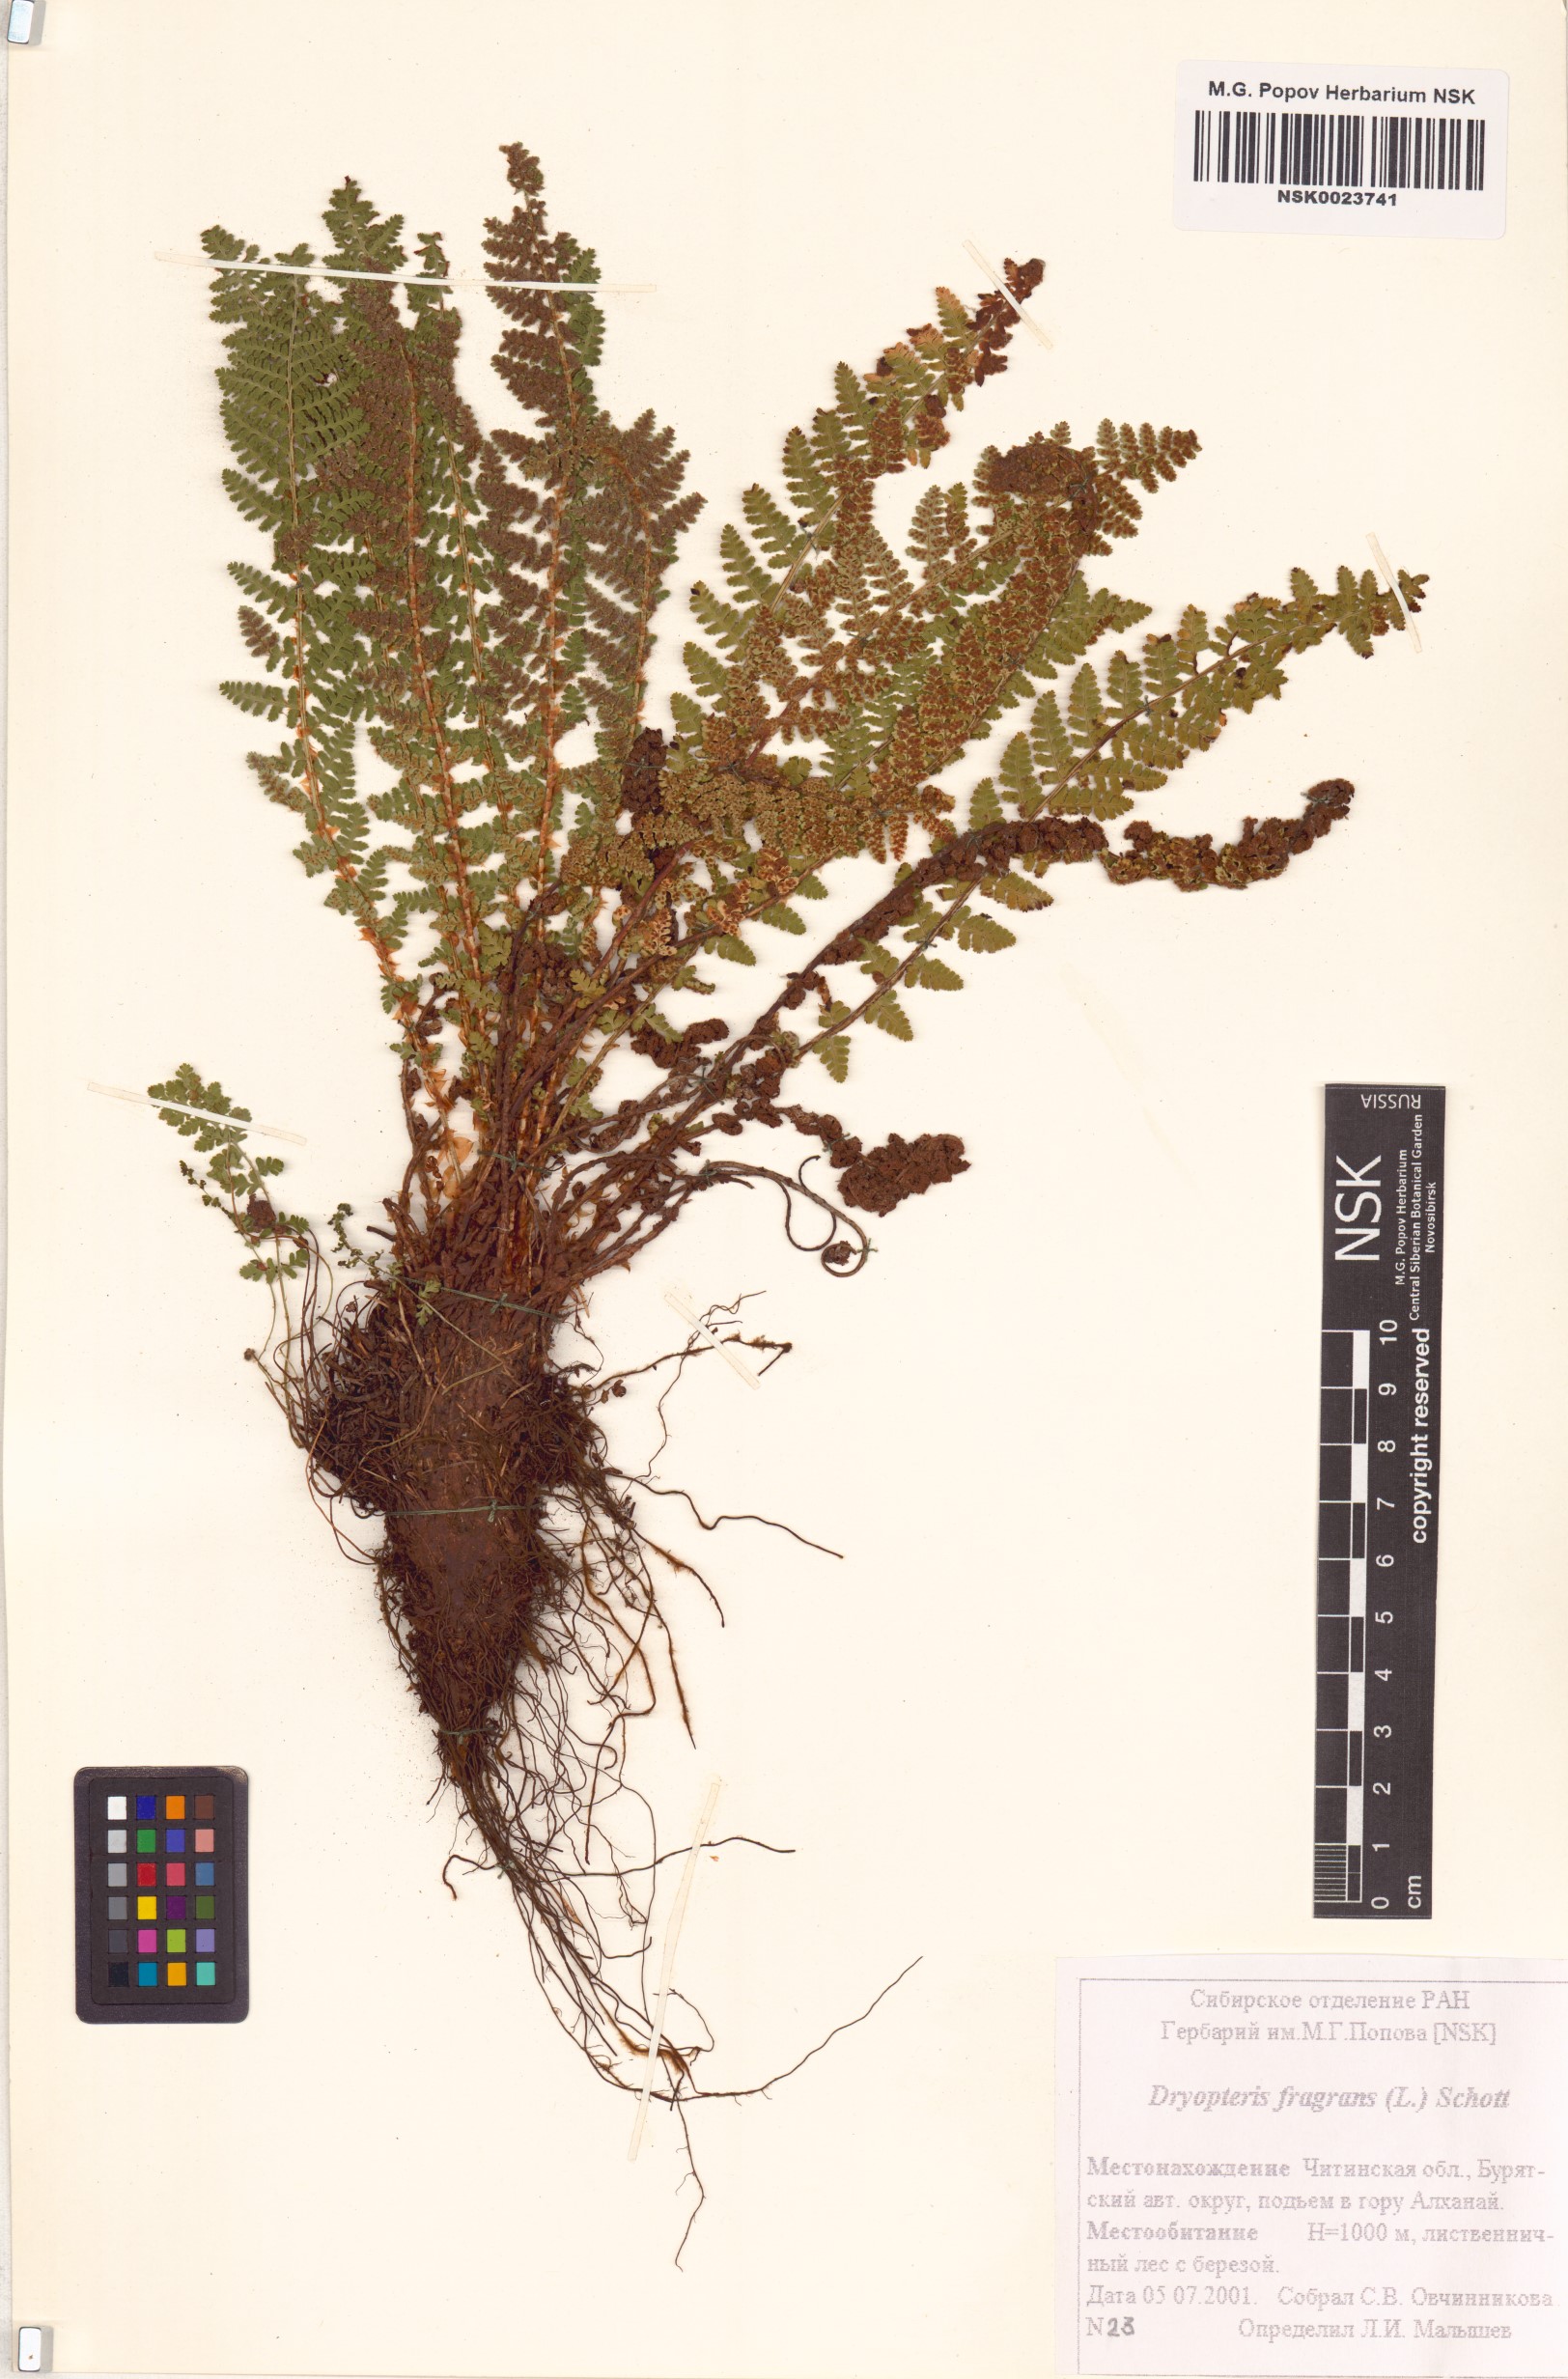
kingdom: Plantae
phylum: Tracheophyta
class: Polypodiopsida
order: Polypodiales
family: Dryopteridaceae
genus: Dryopteris
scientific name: Dryopteris fragrans
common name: Fragrant wood fern
